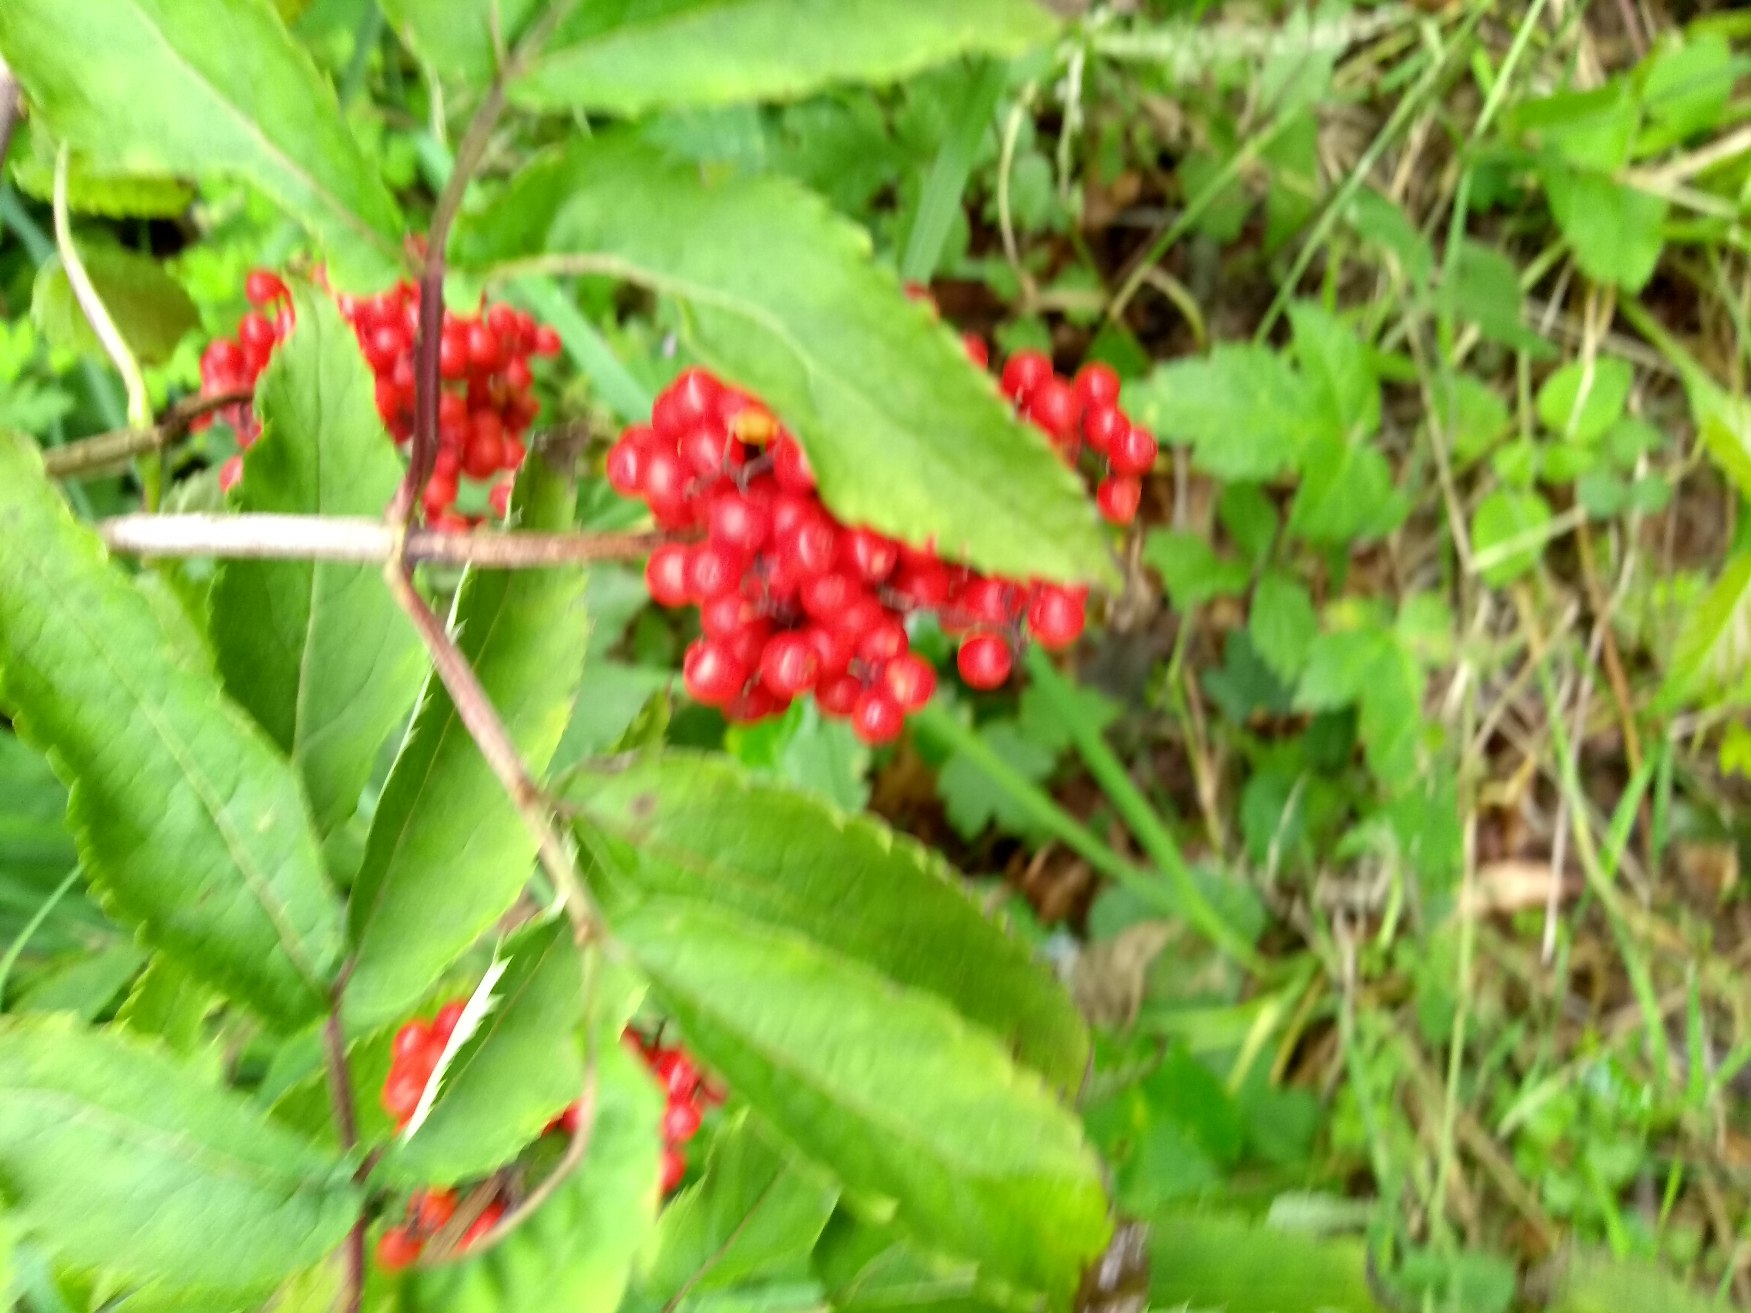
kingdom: Plantae
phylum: Tracheophyta
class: Magnoliopsida
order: Dipsacales
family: Viburnaceae
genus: Sambucus
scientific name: Sambucus racemosa
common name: Drue-hyld
